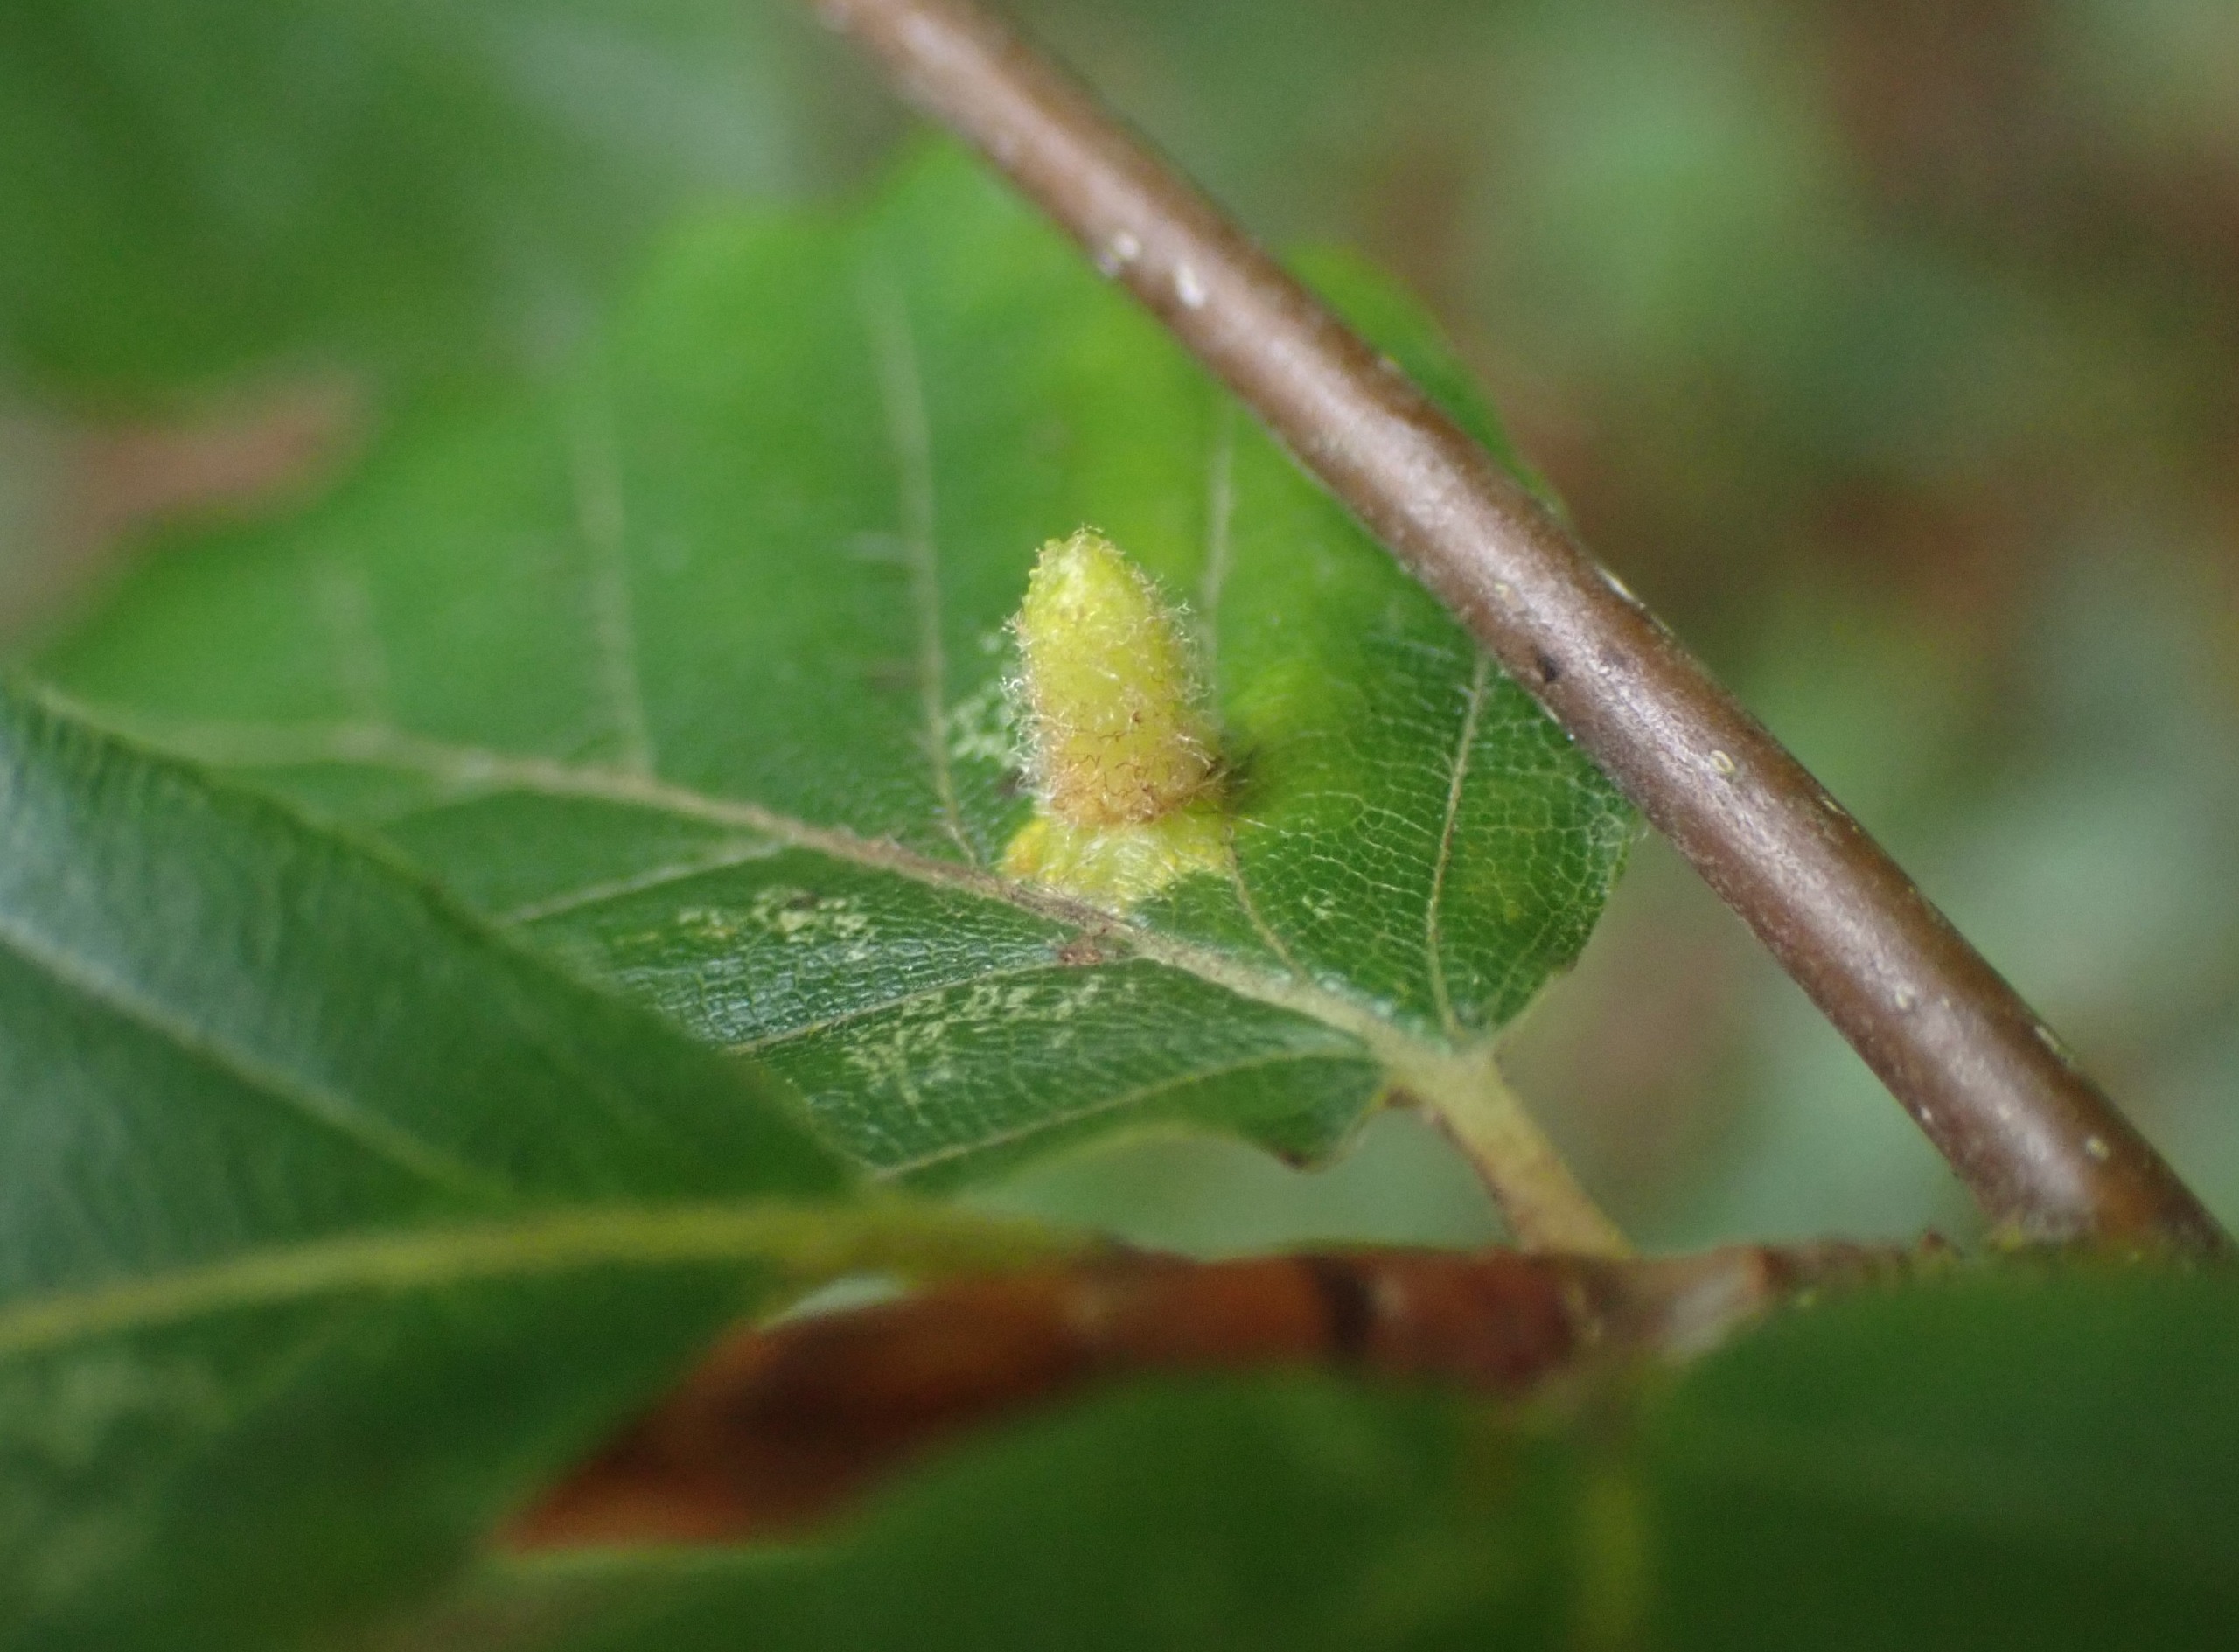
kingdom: Animalia
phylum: Arthropoda
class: Insecta
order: Diptera
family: Cecidomyiidae
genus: Hartigiola
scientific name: Hartigiola annulipes
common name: Skovtroldegalmyg
